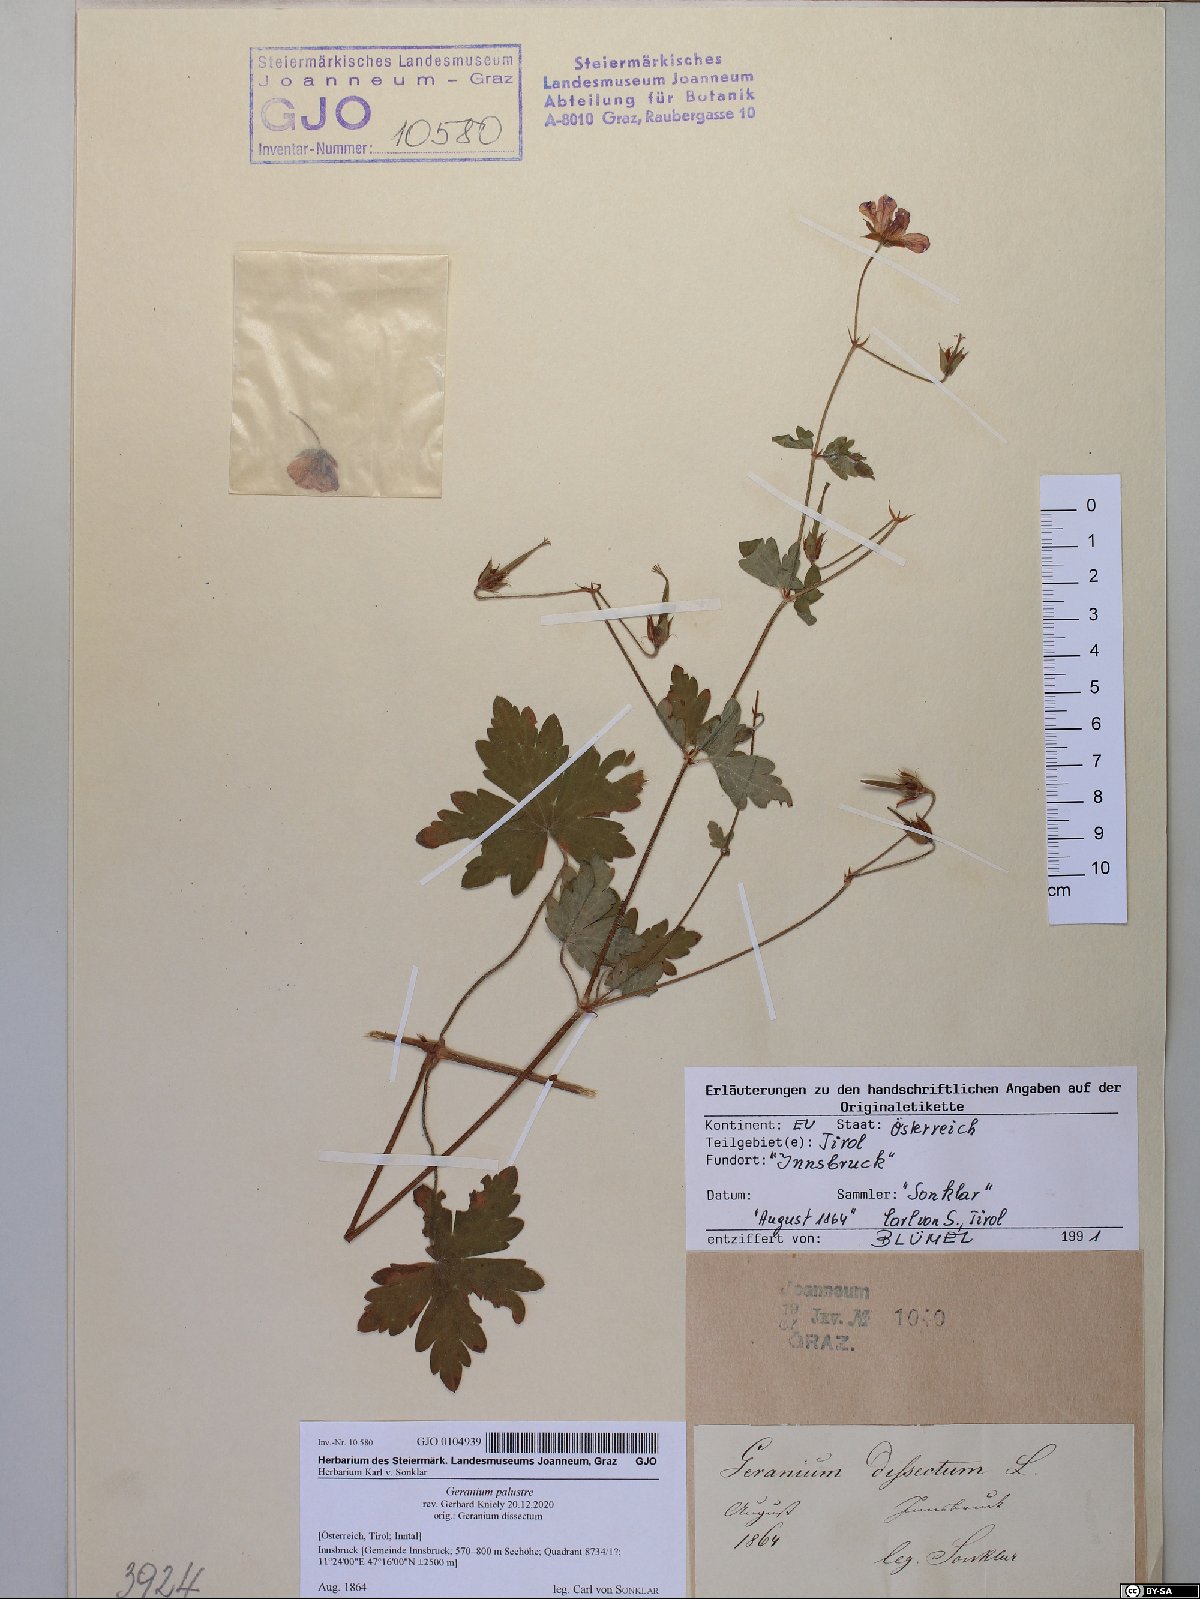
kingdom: Plantae
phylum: Tracheophyta
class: Magnoliopsida
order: Geraniales
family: Geraniaceae
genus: Geranium
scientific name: Geranium palustre
